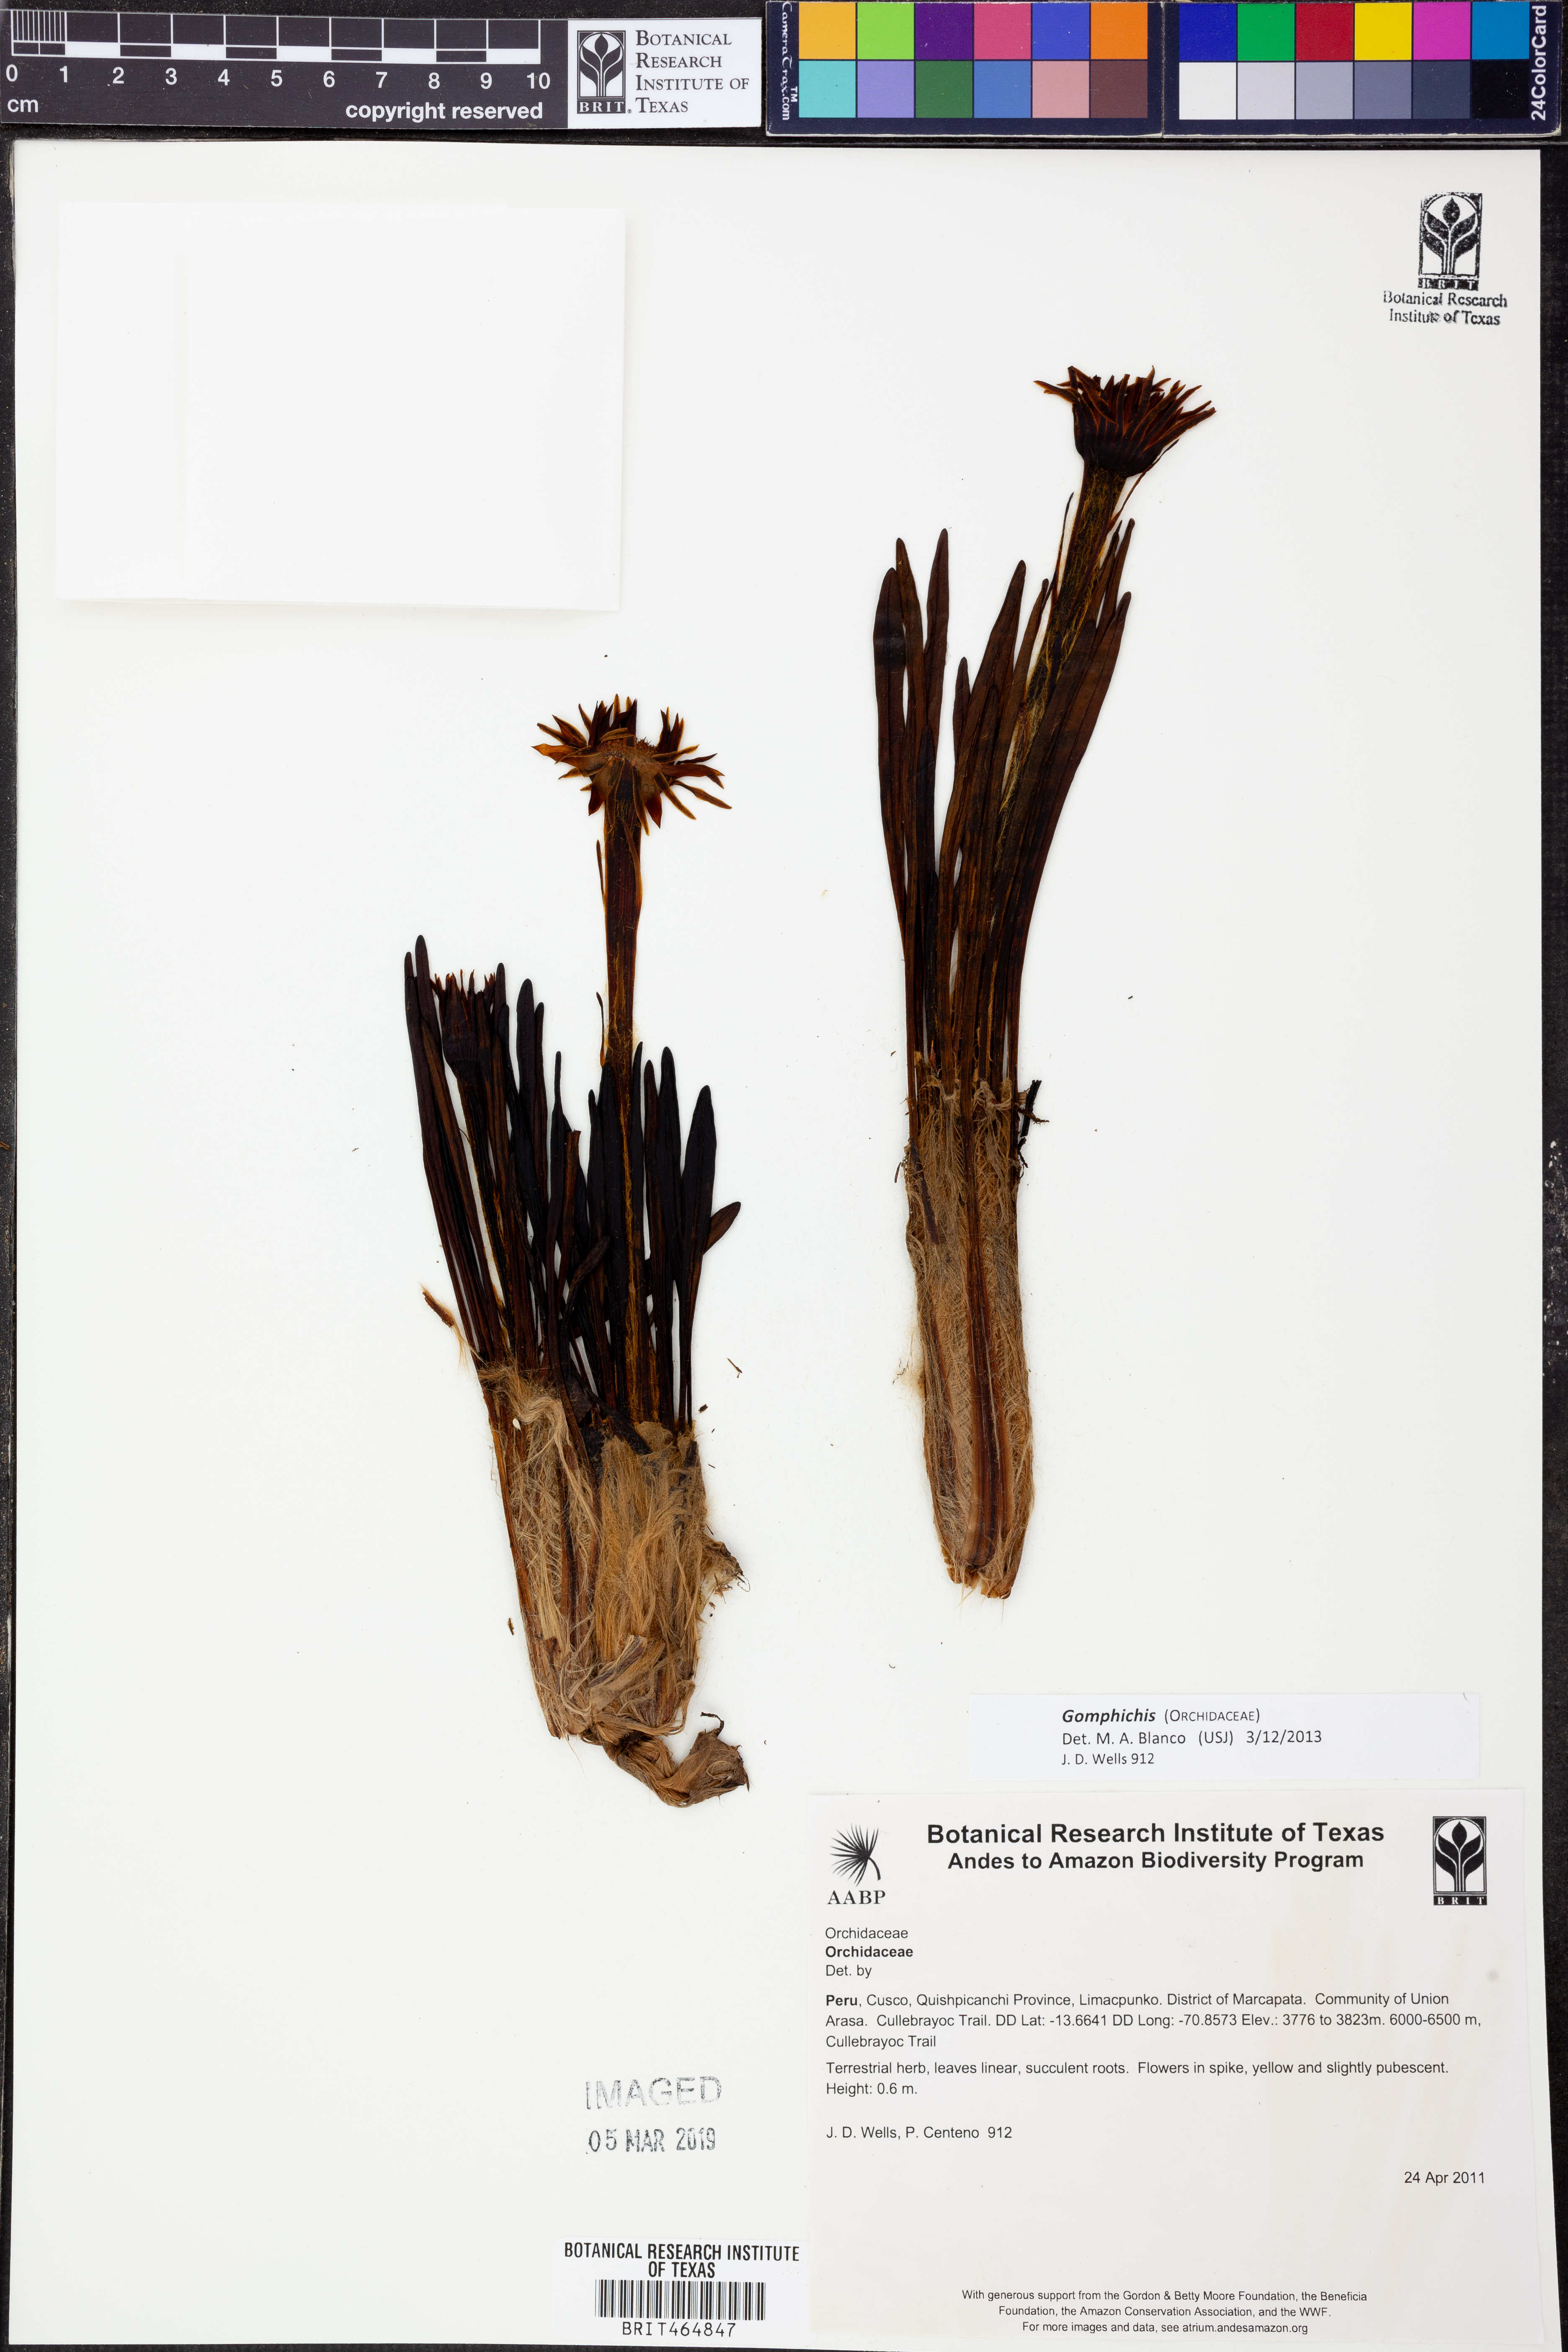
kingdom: Plantae
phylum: Tracheophyta
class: Liliopsida
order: Asparagales
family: Orchidaceae
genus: Gomphichis
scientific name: Gomphichis
